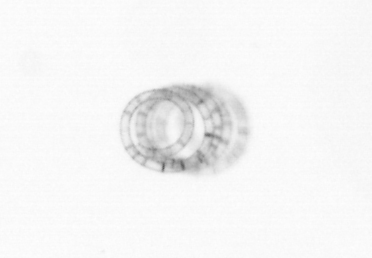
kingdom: Chromista
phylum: Ochrophyta
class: Bacillariophyceae
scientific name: Bacillariophyceae
